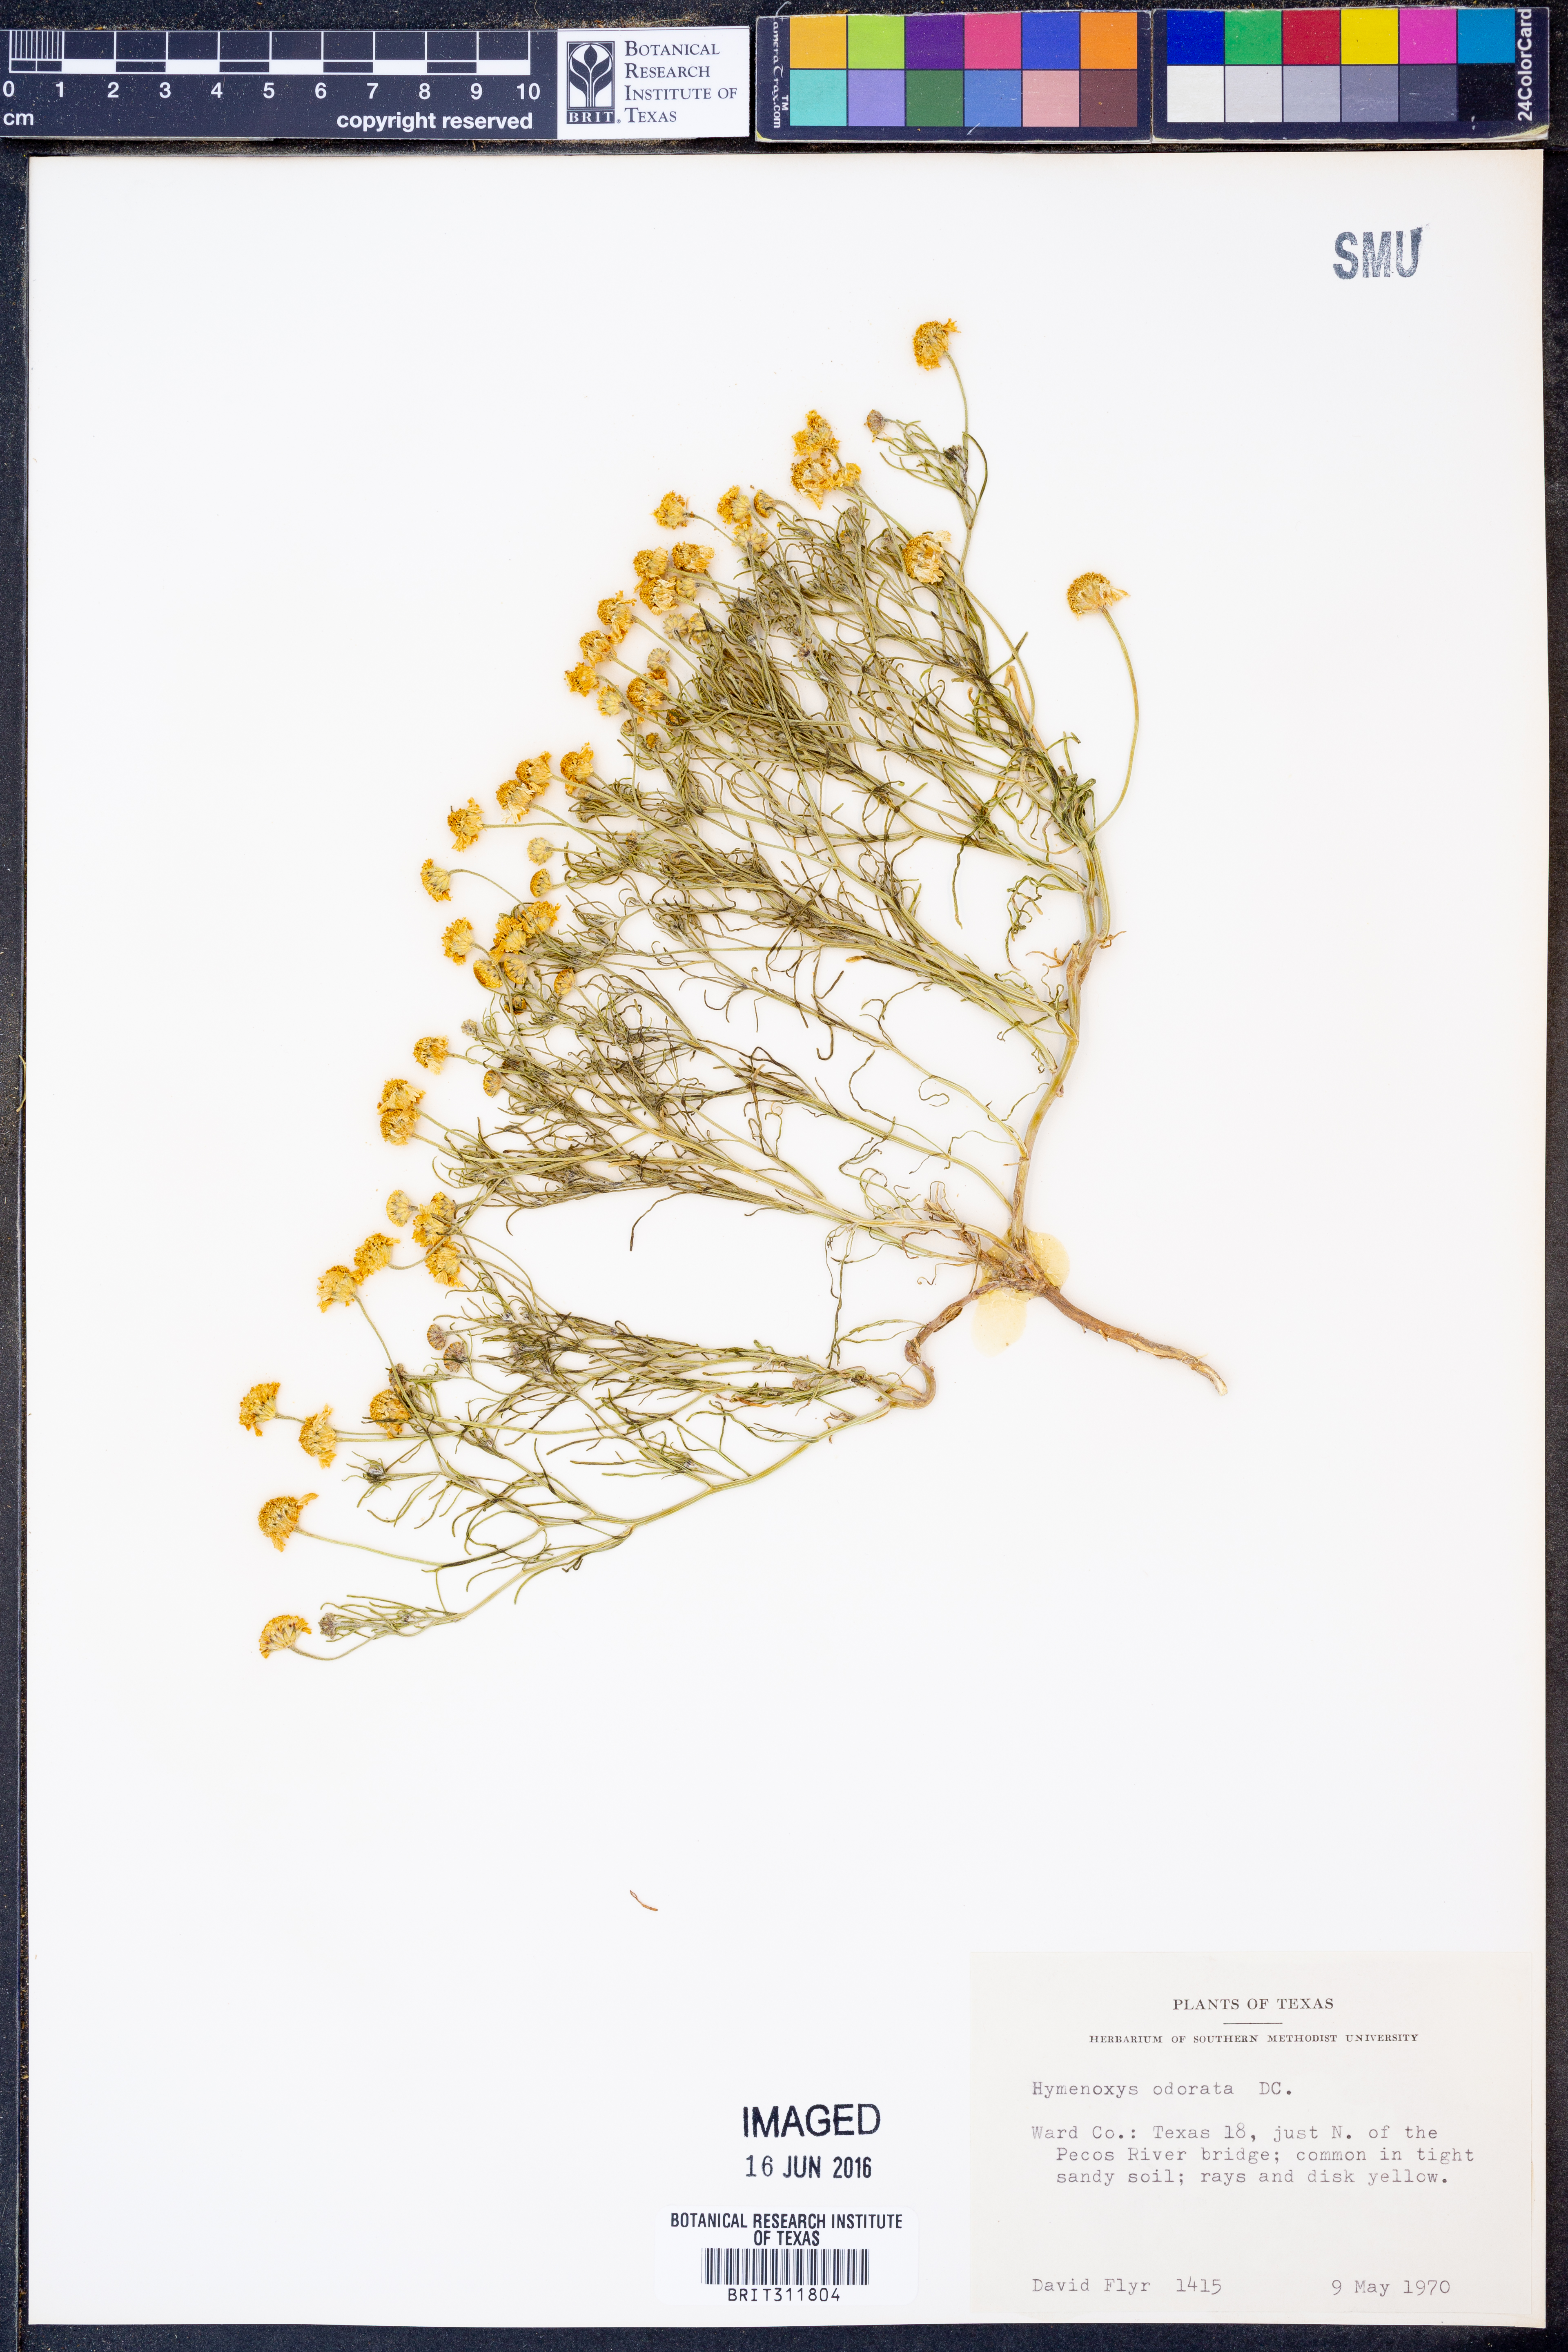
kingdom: Plantae
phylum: Tracheophyta
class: Magnoliopsida
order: Asterales
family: Asteraceae
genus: Hymenoxys
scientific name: Hymenoxys odorata
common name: Bitter rubberweed
